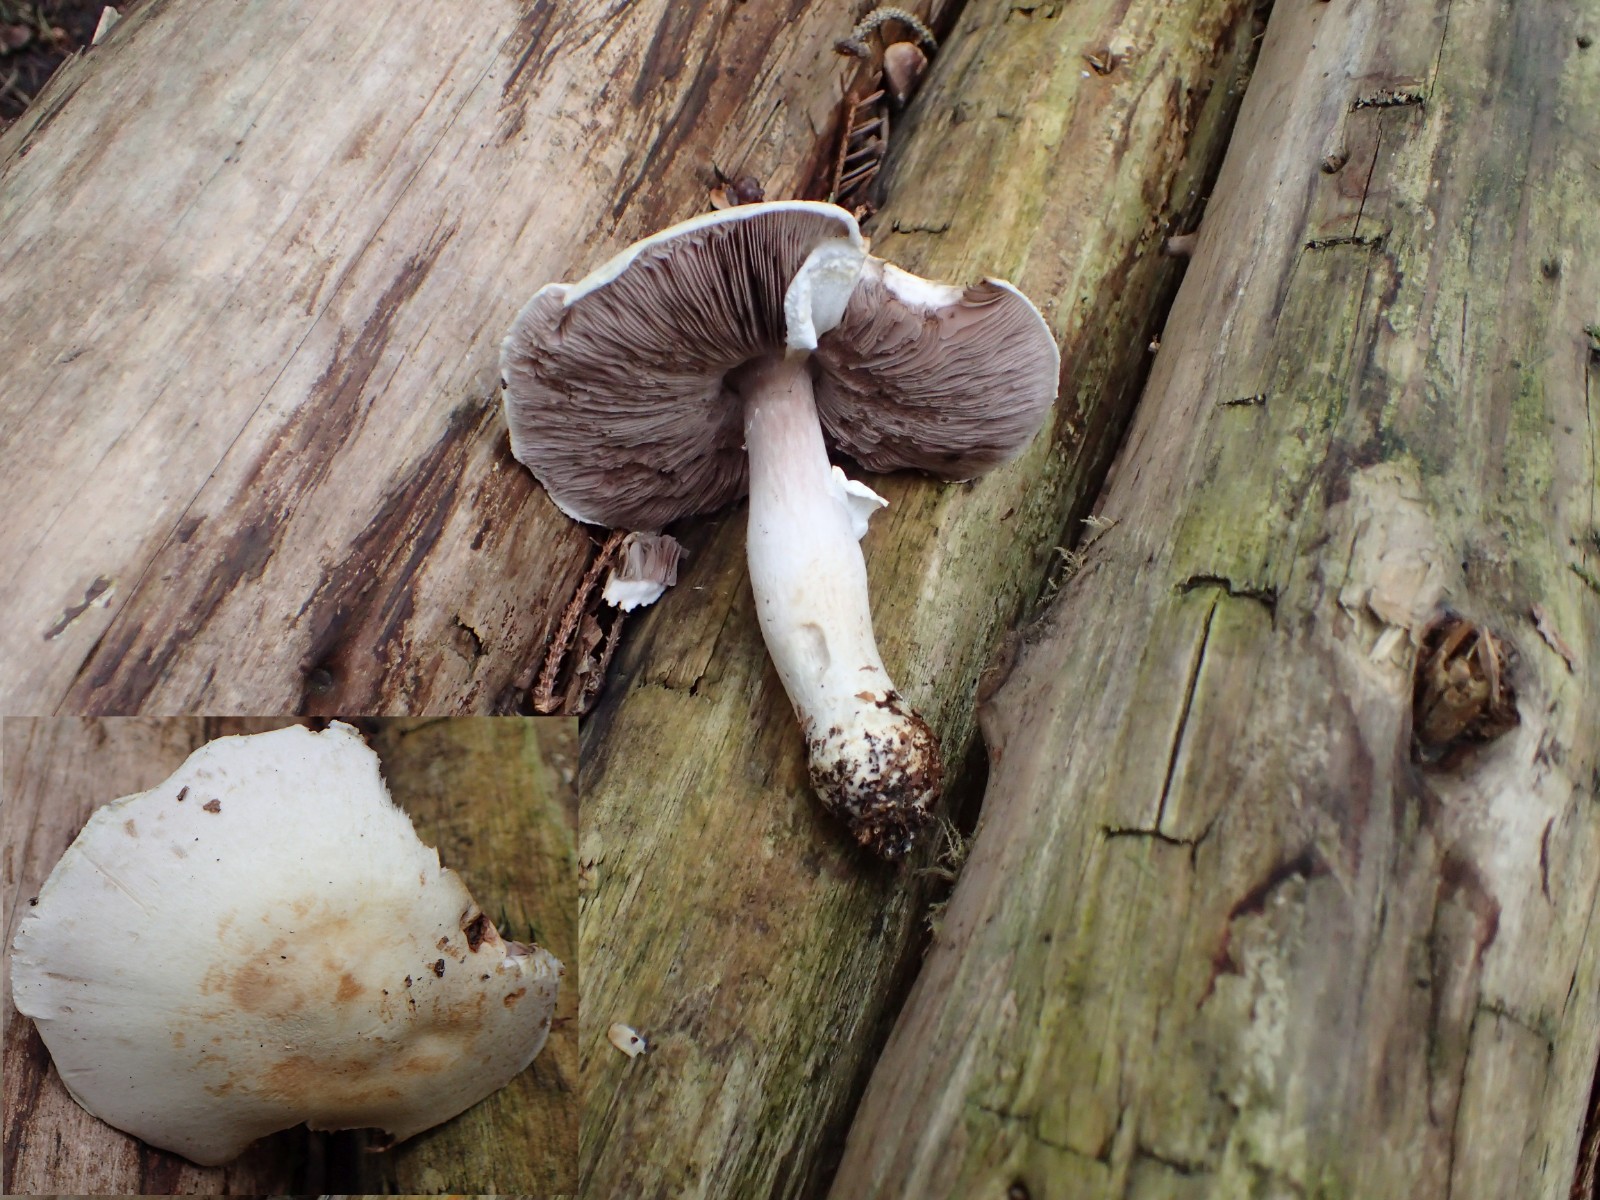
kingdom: Fungi
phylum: Basidiomycota
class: Agaricomycetes
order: Agaricales
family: Agaricaceae
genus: Agaricus
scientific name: Agaricus
